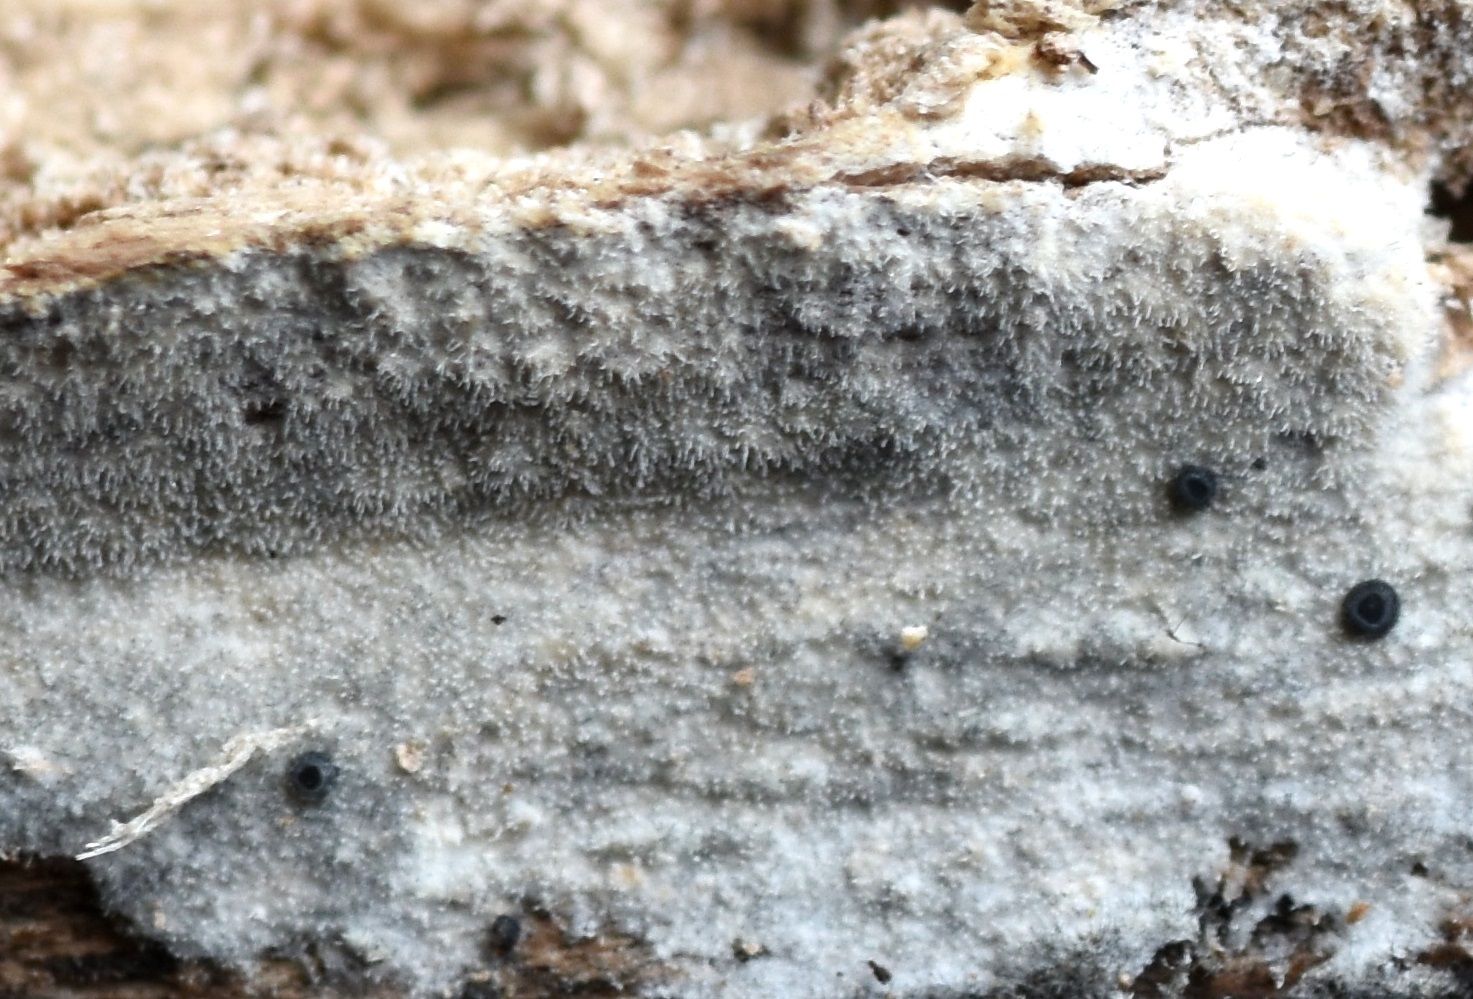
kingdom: Fungi
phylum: Basidiomycota
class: Agaricomycetes
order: Polyporales
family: Hyphodermataceae
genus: Hyphoderma
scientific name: Hyphoderma setigerum
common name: håret kalkskind
